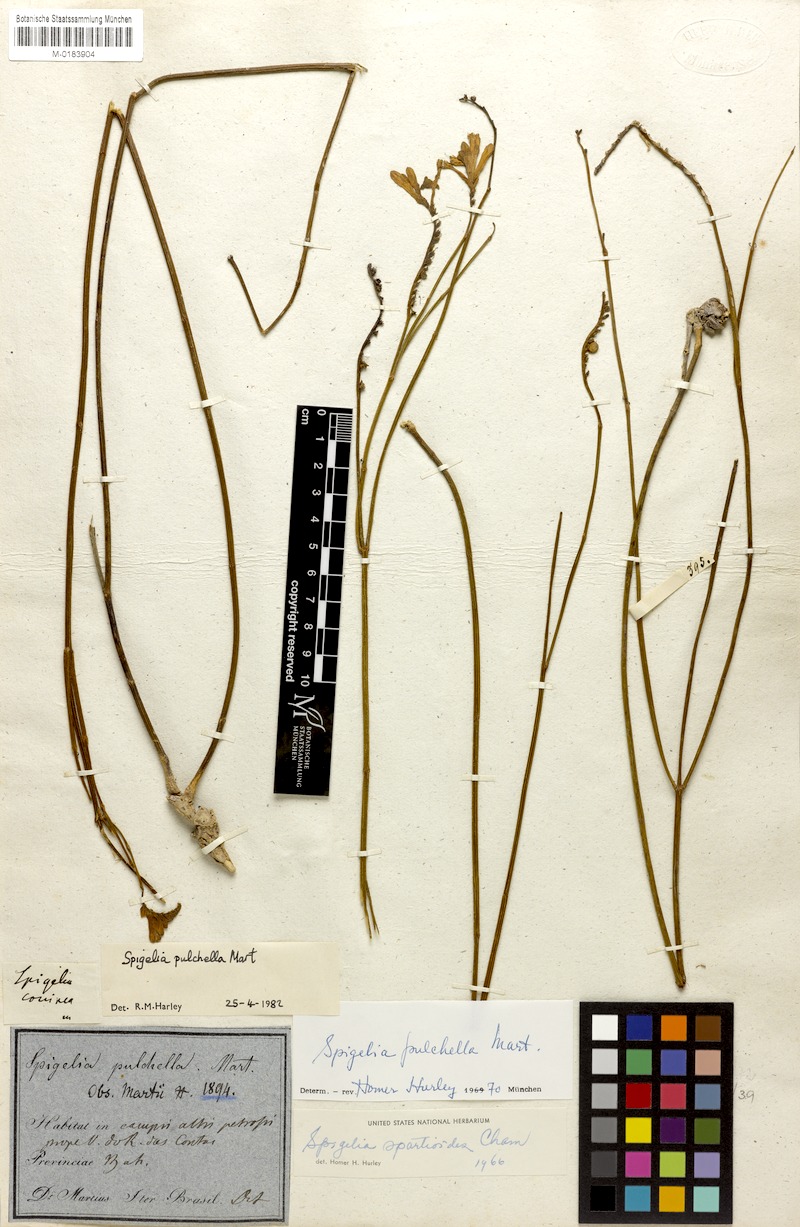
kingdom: Plantae
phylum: Tracheophyta
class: Magnoliopsida
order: Gentianales
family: Loganiaceae
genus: Spigelia
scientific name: Spigelia pulchella
